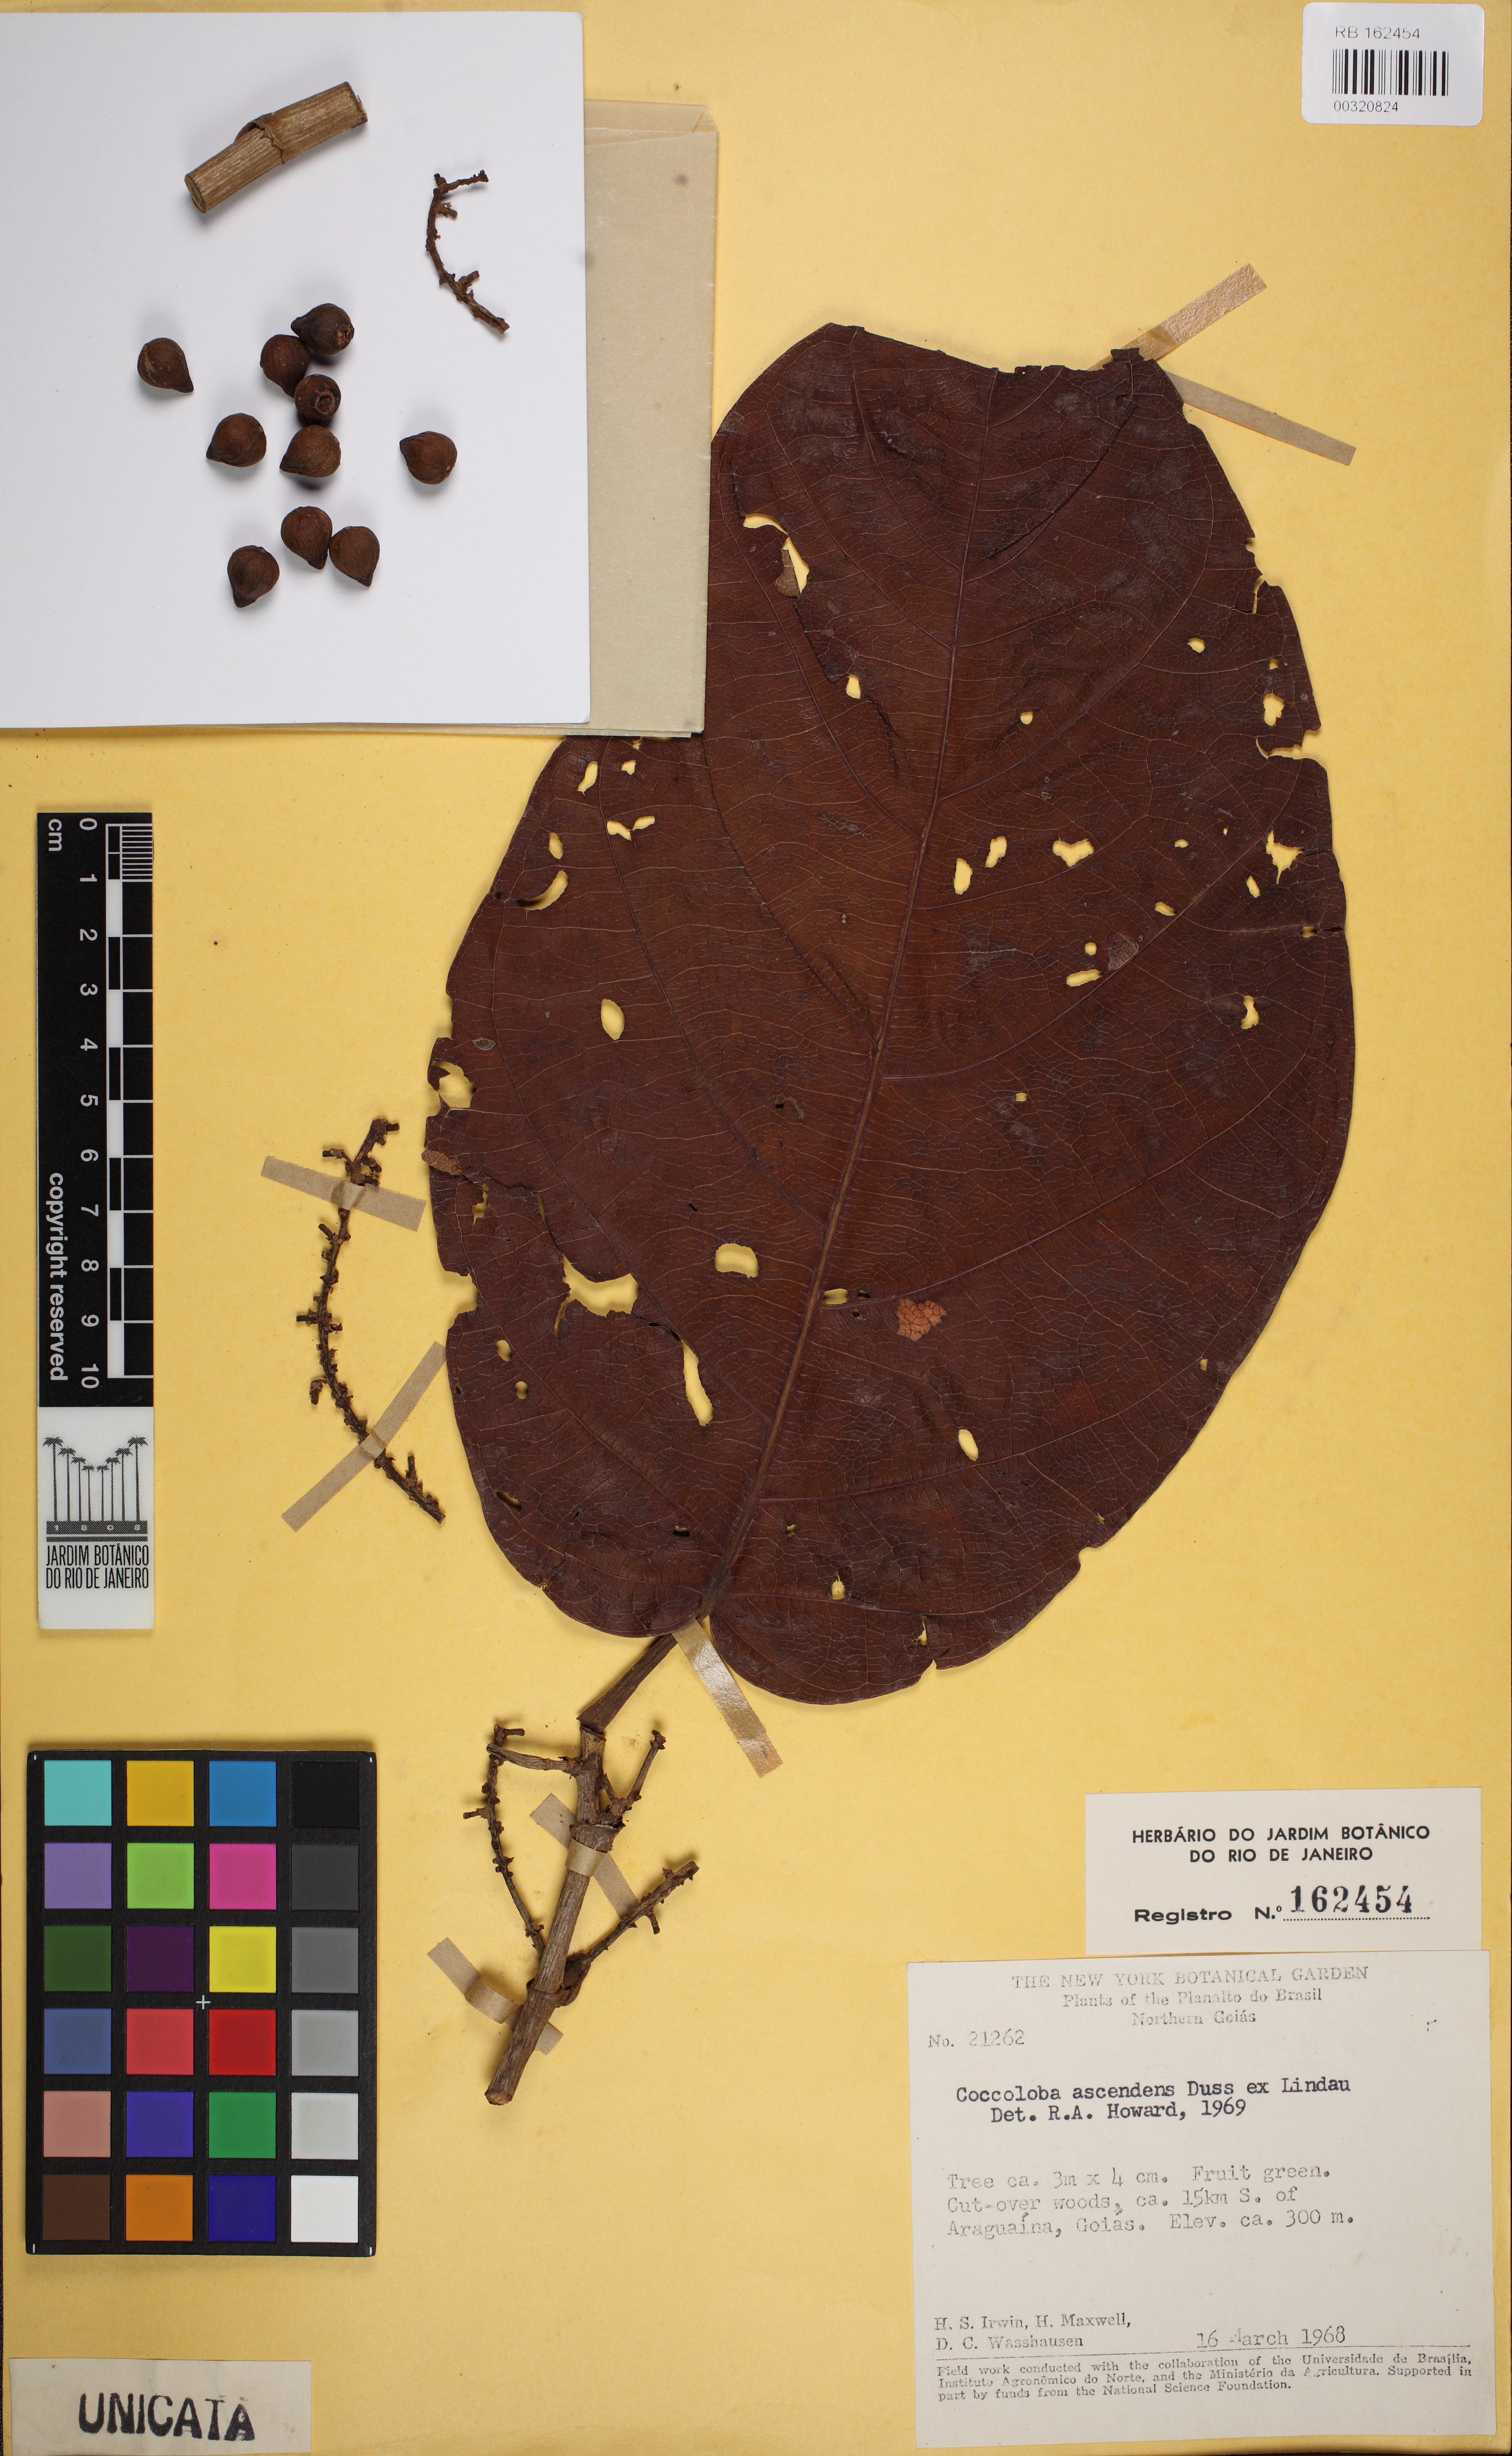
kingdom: Plantae
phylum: Tracheophyta
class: Magnoliopsida
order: Caryophyllales
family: Polygonaceae
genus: Coccoloba
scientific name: Coccoloba ascendens
